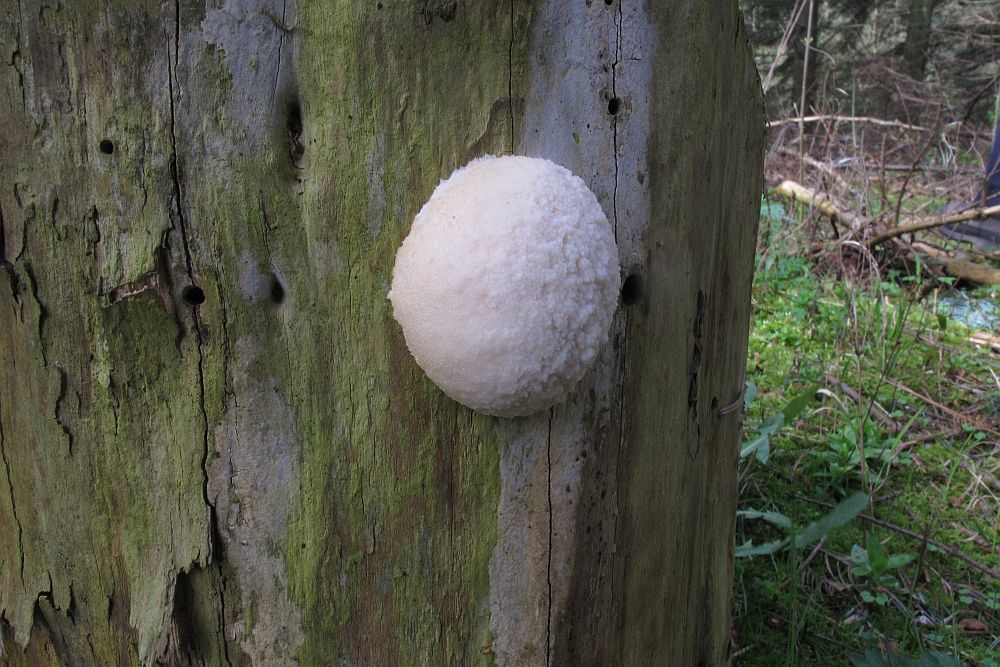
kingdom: Protozoa
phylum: Mycetozoa
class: Myxomycetes
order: Cribrariales
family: Tubiferaceae
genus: Reticularia
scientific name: Reticularia lycoperdon
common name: skinnende støvpude
